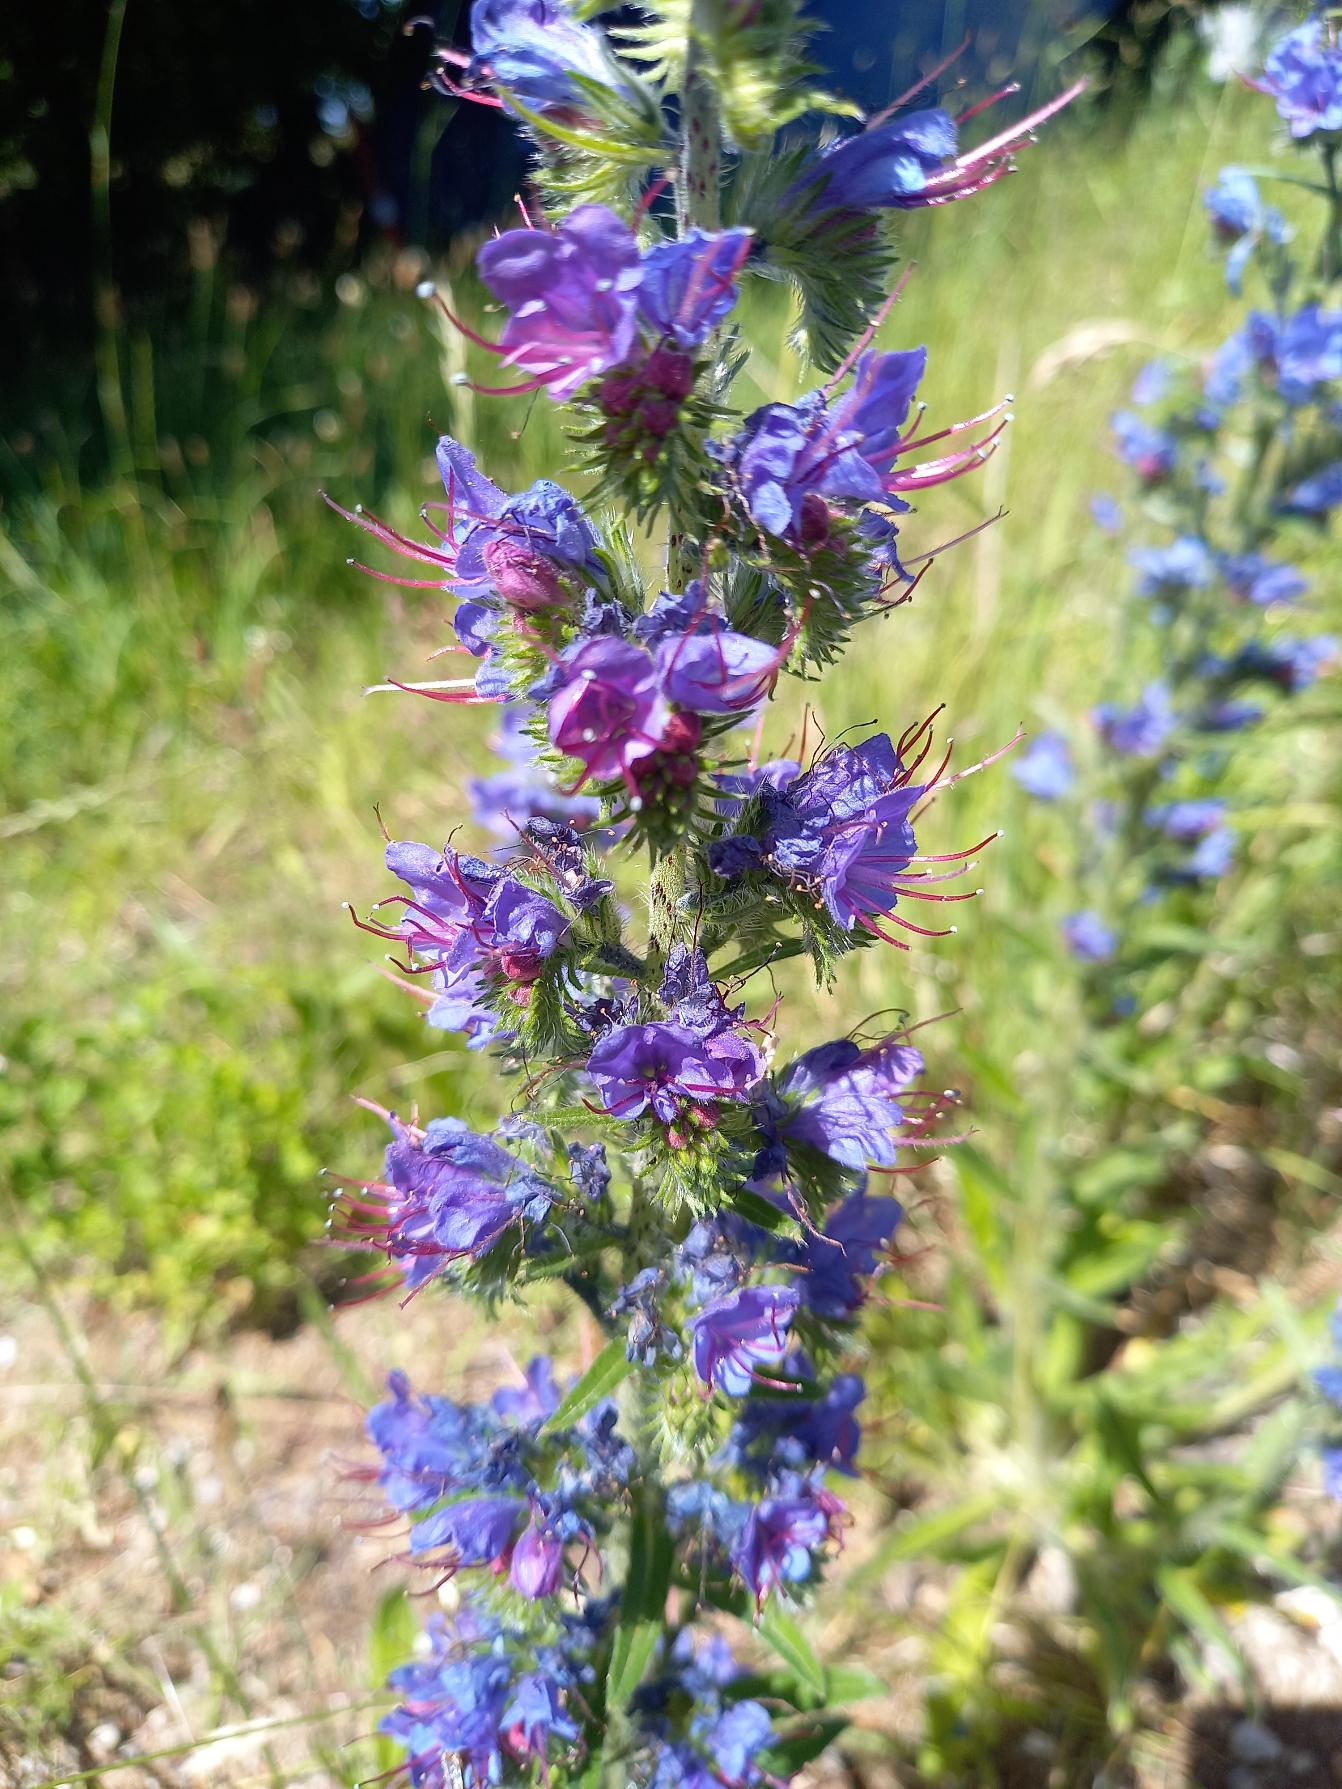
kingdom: Plantae
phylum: Tracheophyta
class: Magnoliopsida
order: Boraginales
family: Boraginaceae
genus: Echium
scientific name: Echium vulgare
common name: Slangehoved
